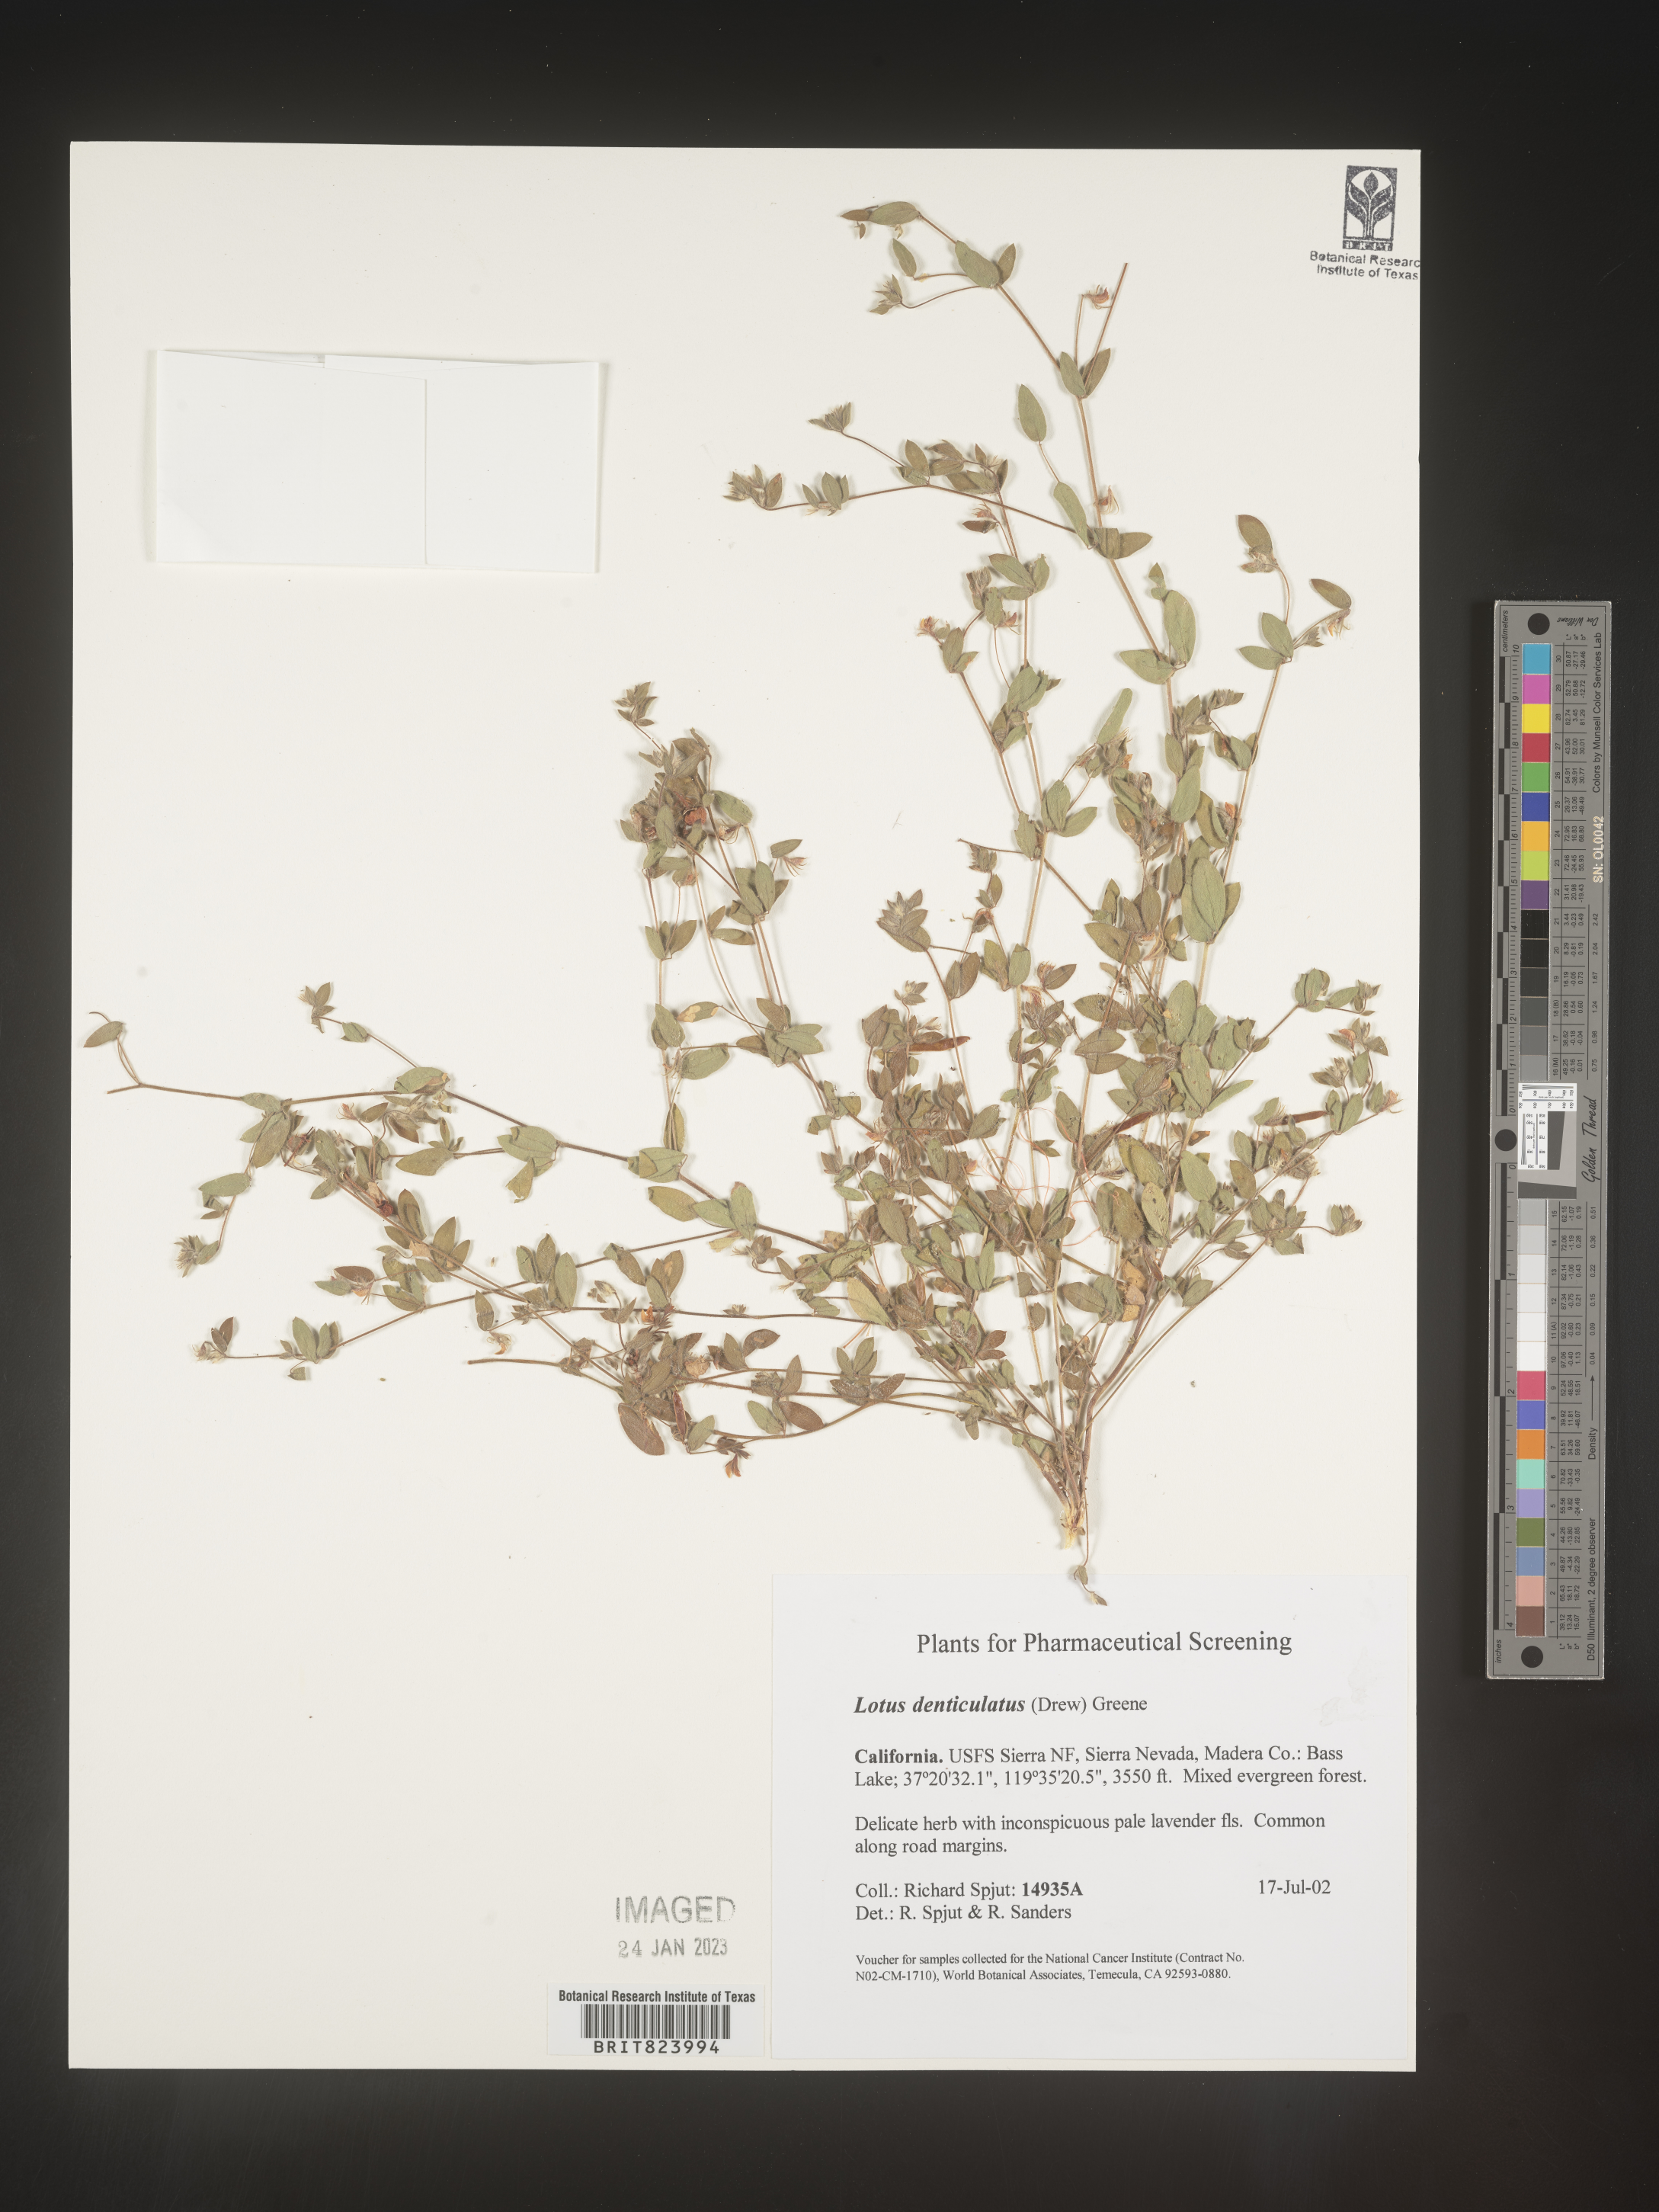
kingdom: Plantae
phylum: Tracheophyta
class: Magnoliopsida
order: Fabales
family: Fabaceae
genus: Lotus
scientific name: Lotus
